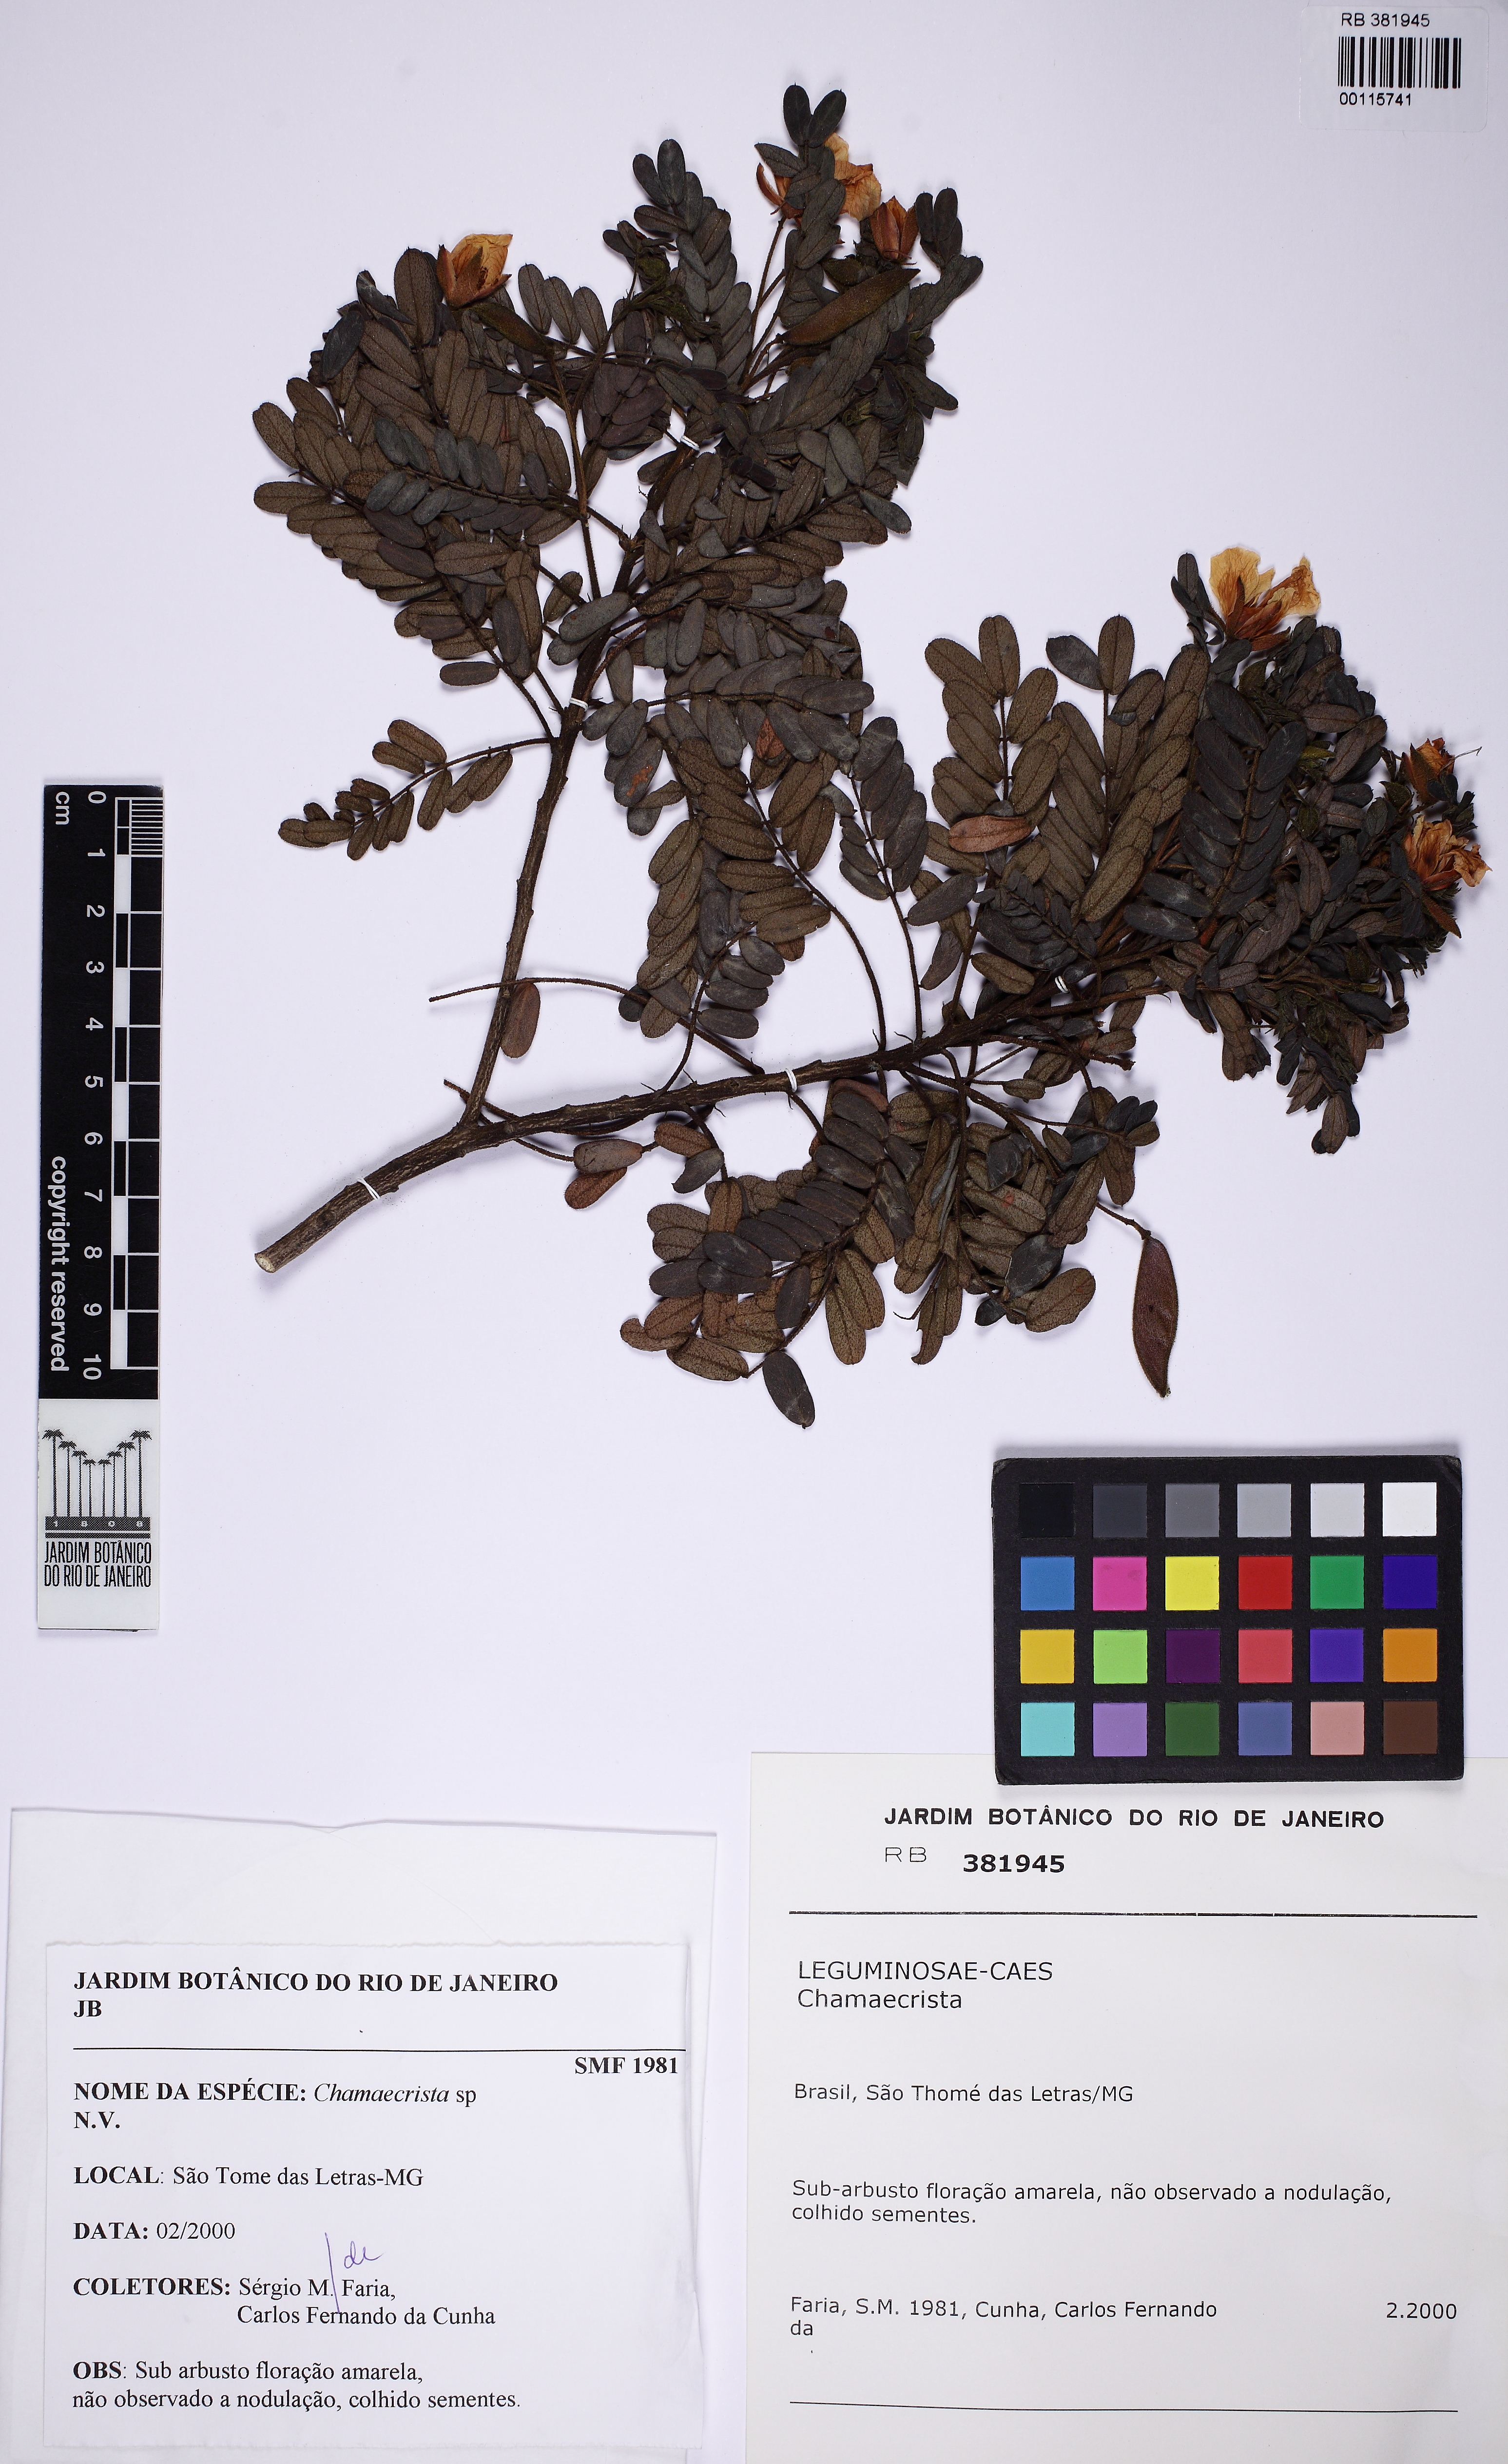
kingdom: Plantae
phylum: Tracheophyta
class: Magnoliopsida
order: Fabales
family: Fabaceae
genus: Chamaecrista
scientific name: Chamaecrista
